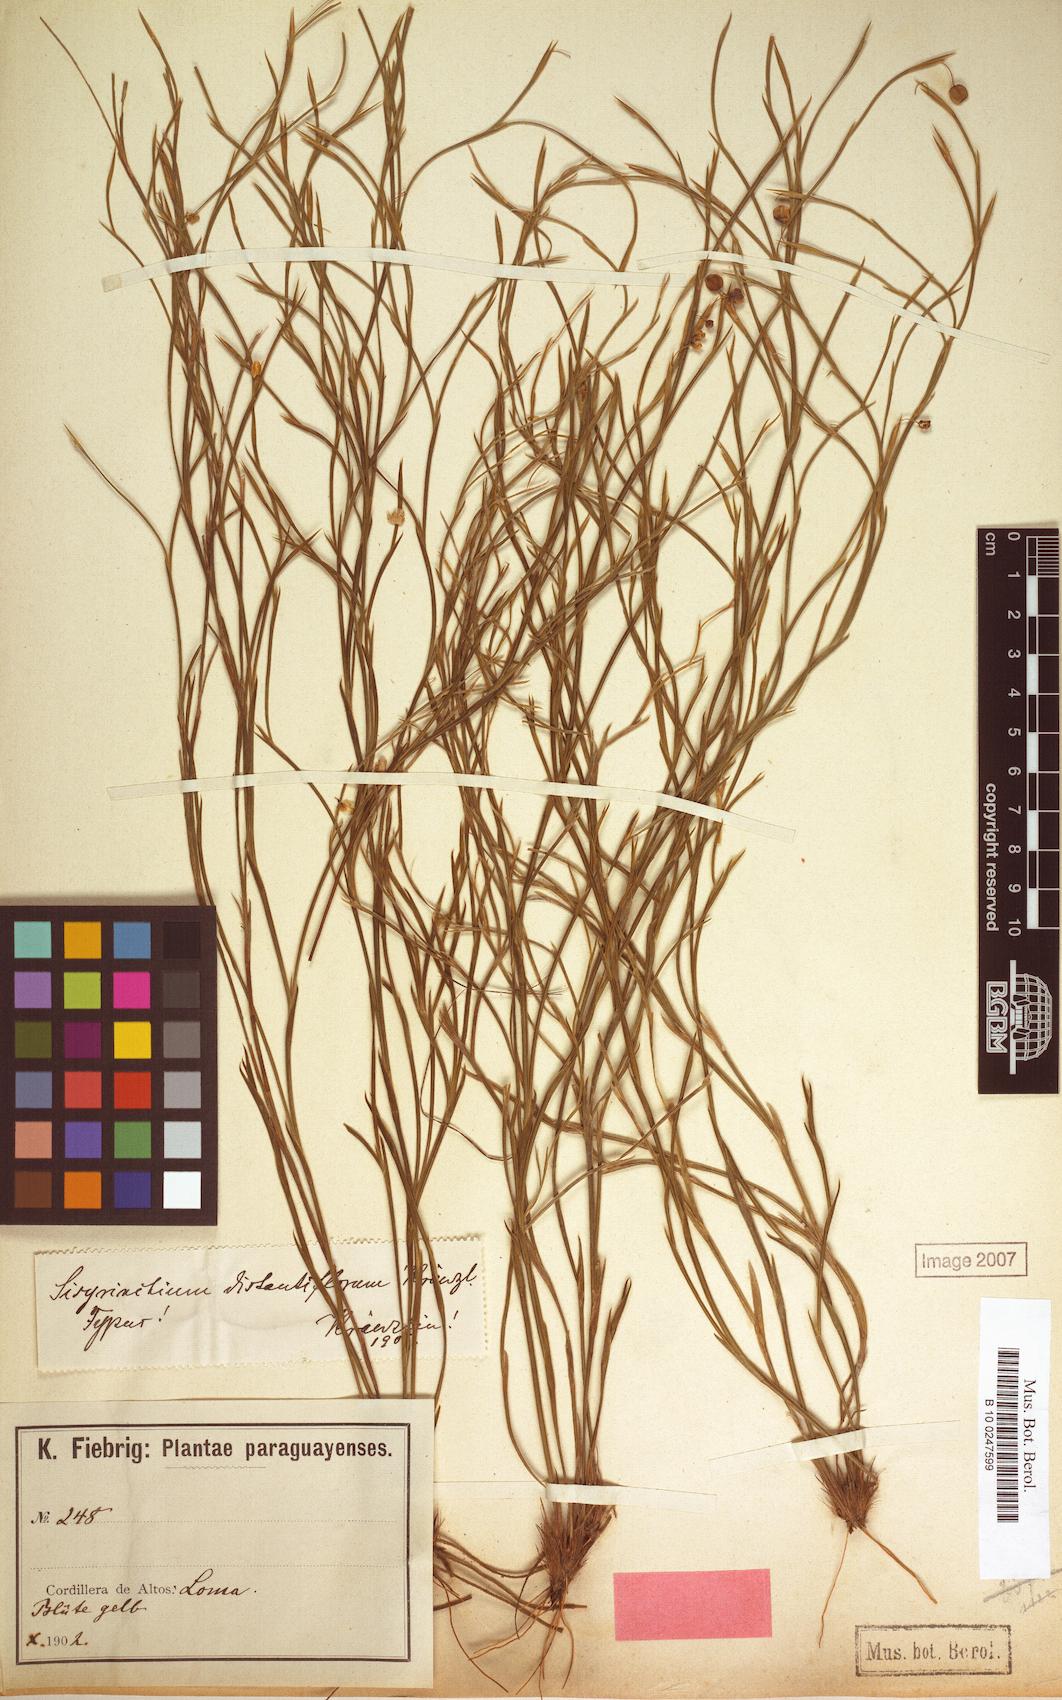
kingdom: Plantae
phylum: Tracheophyta
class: Liliopsida
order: Asparagales
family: Iridaceae
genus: Sisyrinchium
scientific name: Sisyrinchium vaginatum
